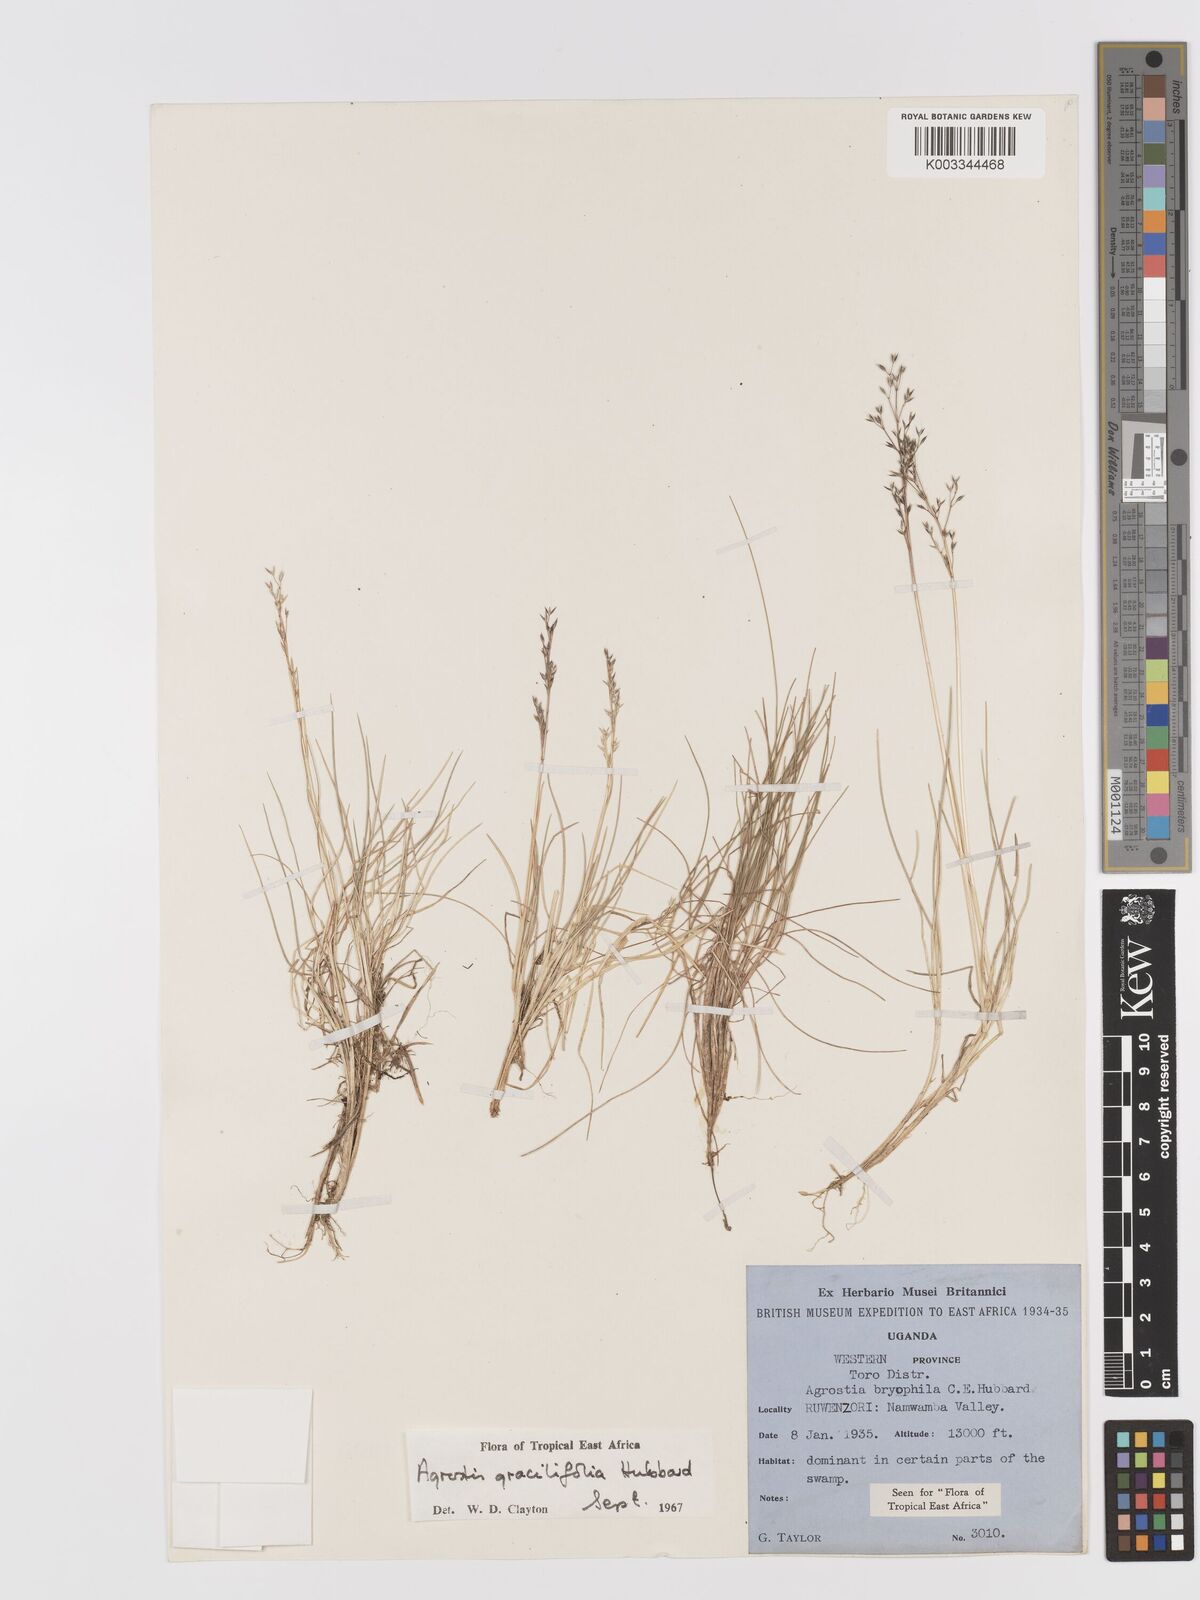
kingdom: Plantae
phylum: Tracheophyta
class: Liliopsida
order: Poales
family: Poaceae
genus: Agrostis
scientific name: Agrostis gracilifolia
